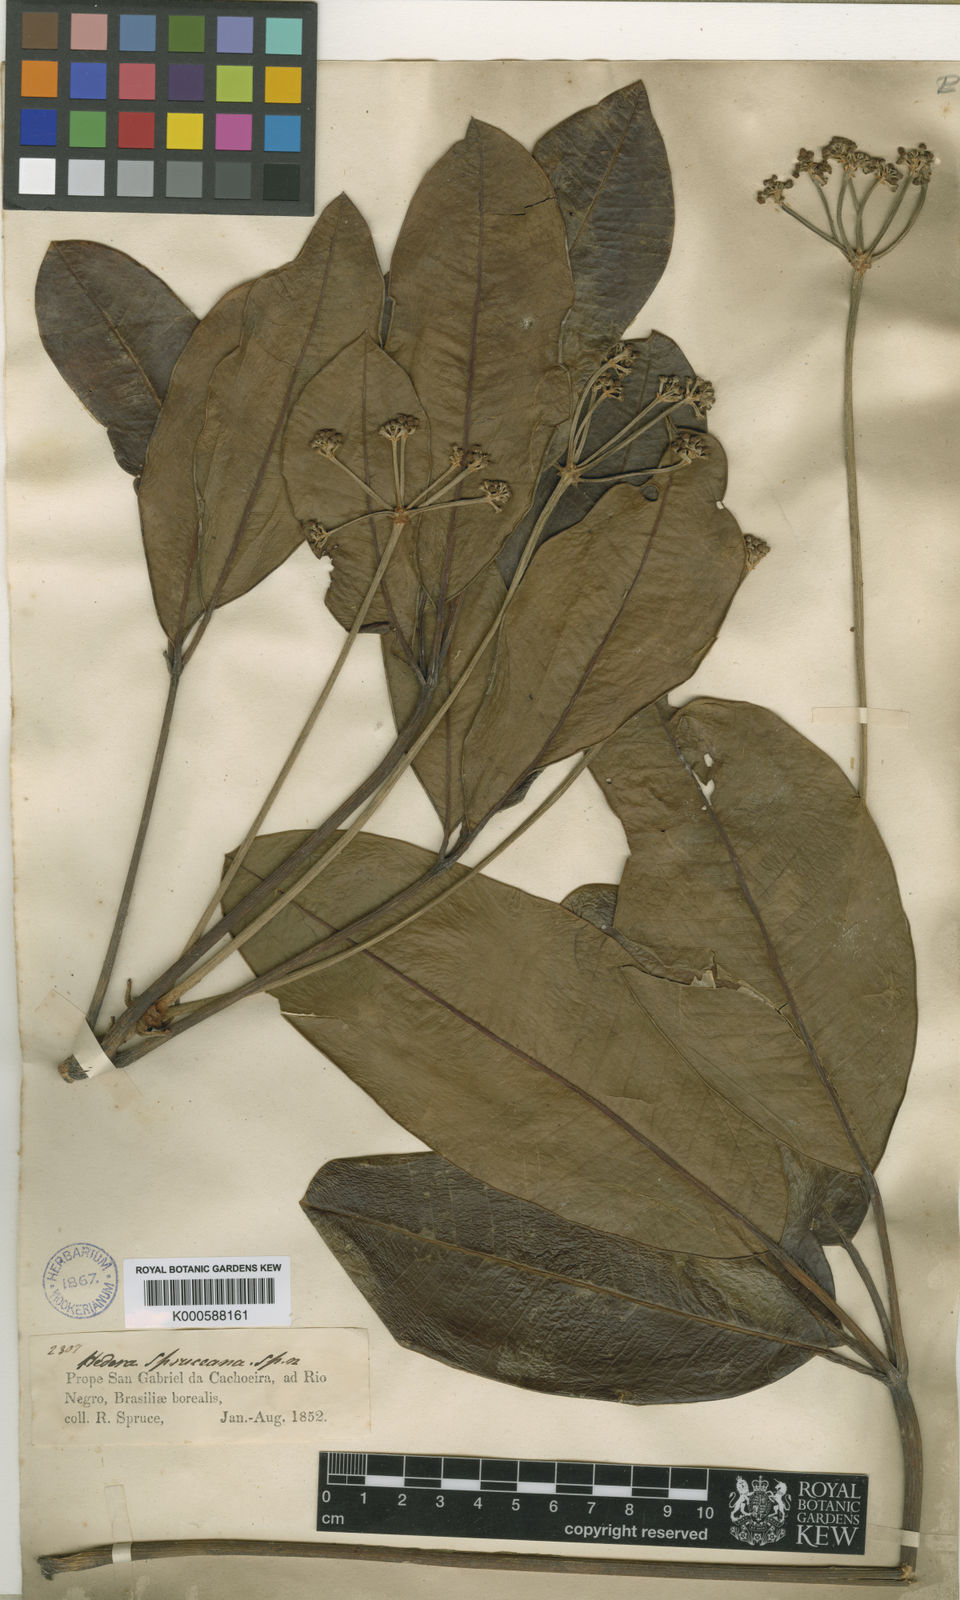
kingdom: Plantae
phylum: Tracheophyta
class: Magnoliopsida
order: Apiales
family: Araliaceae
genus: Crepinella
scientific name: Crepinella spruceana
